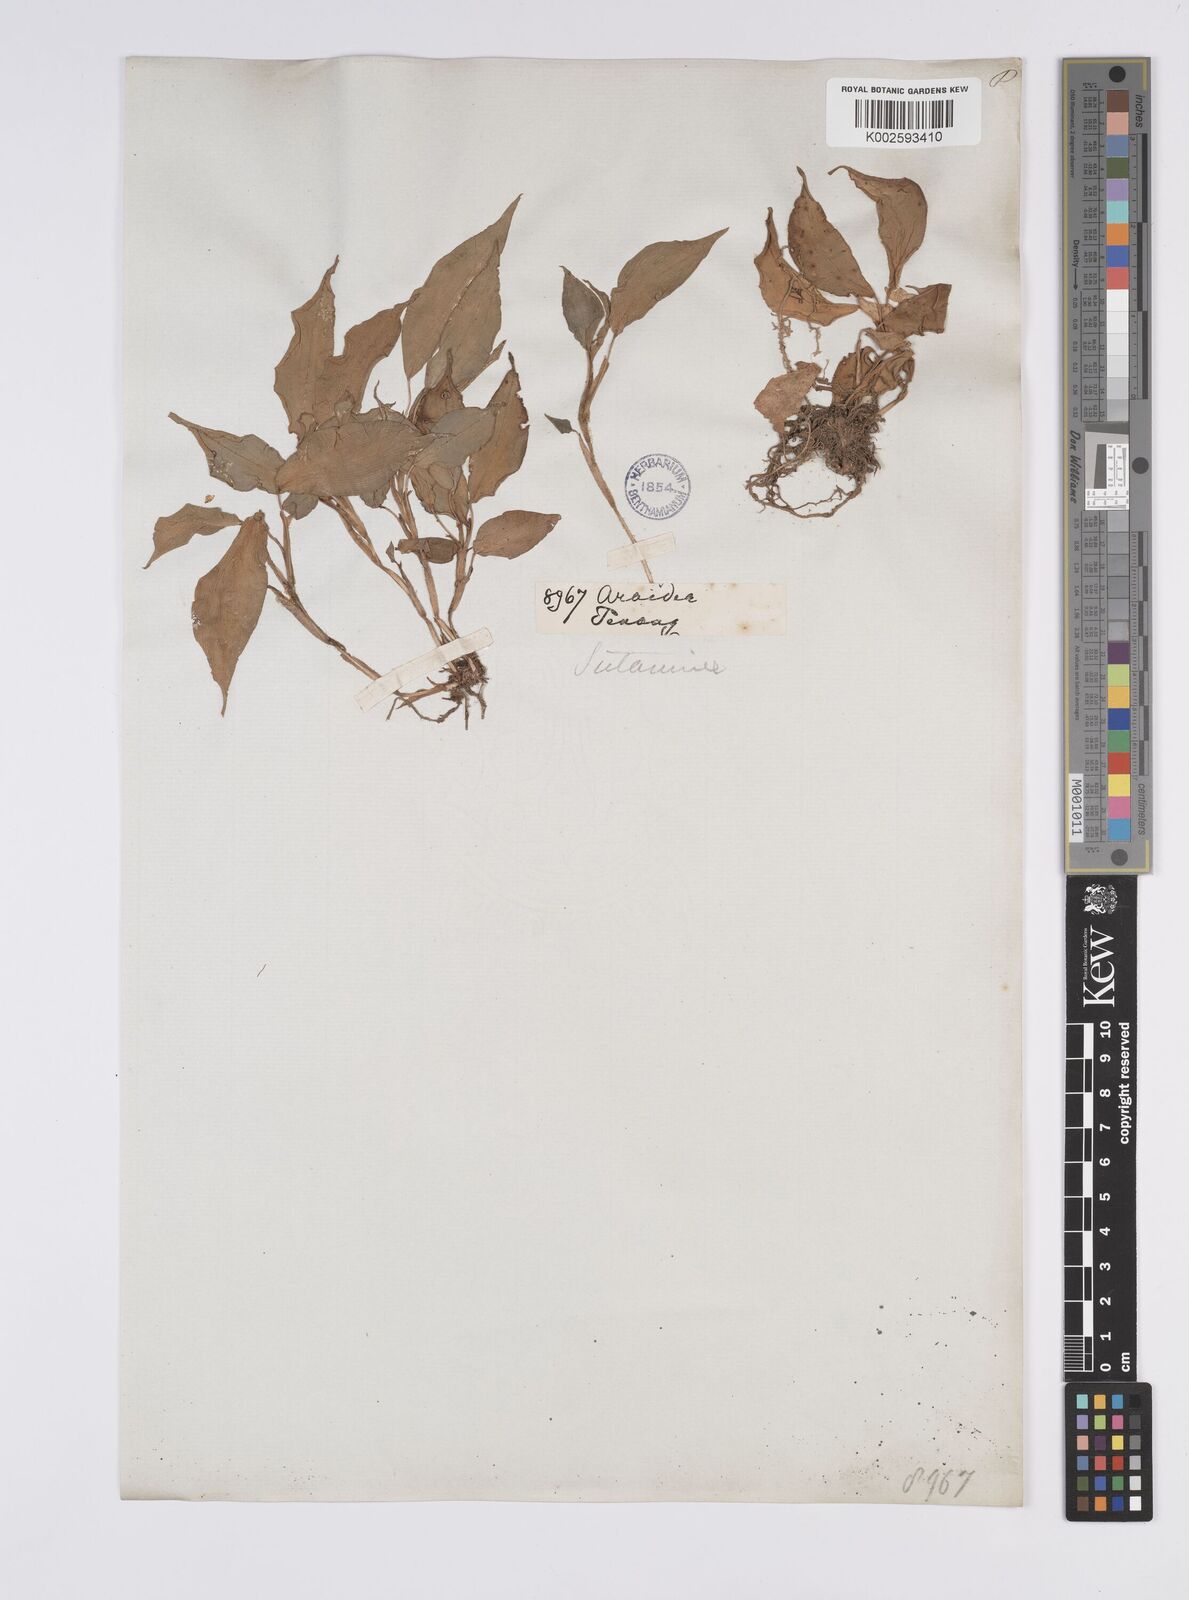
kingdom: Plantae
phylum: Tracheophyta
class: Liliopsida
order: Zingiberales
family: Zingiberaceae
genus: Camptandra
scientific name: Camptandra parvula
